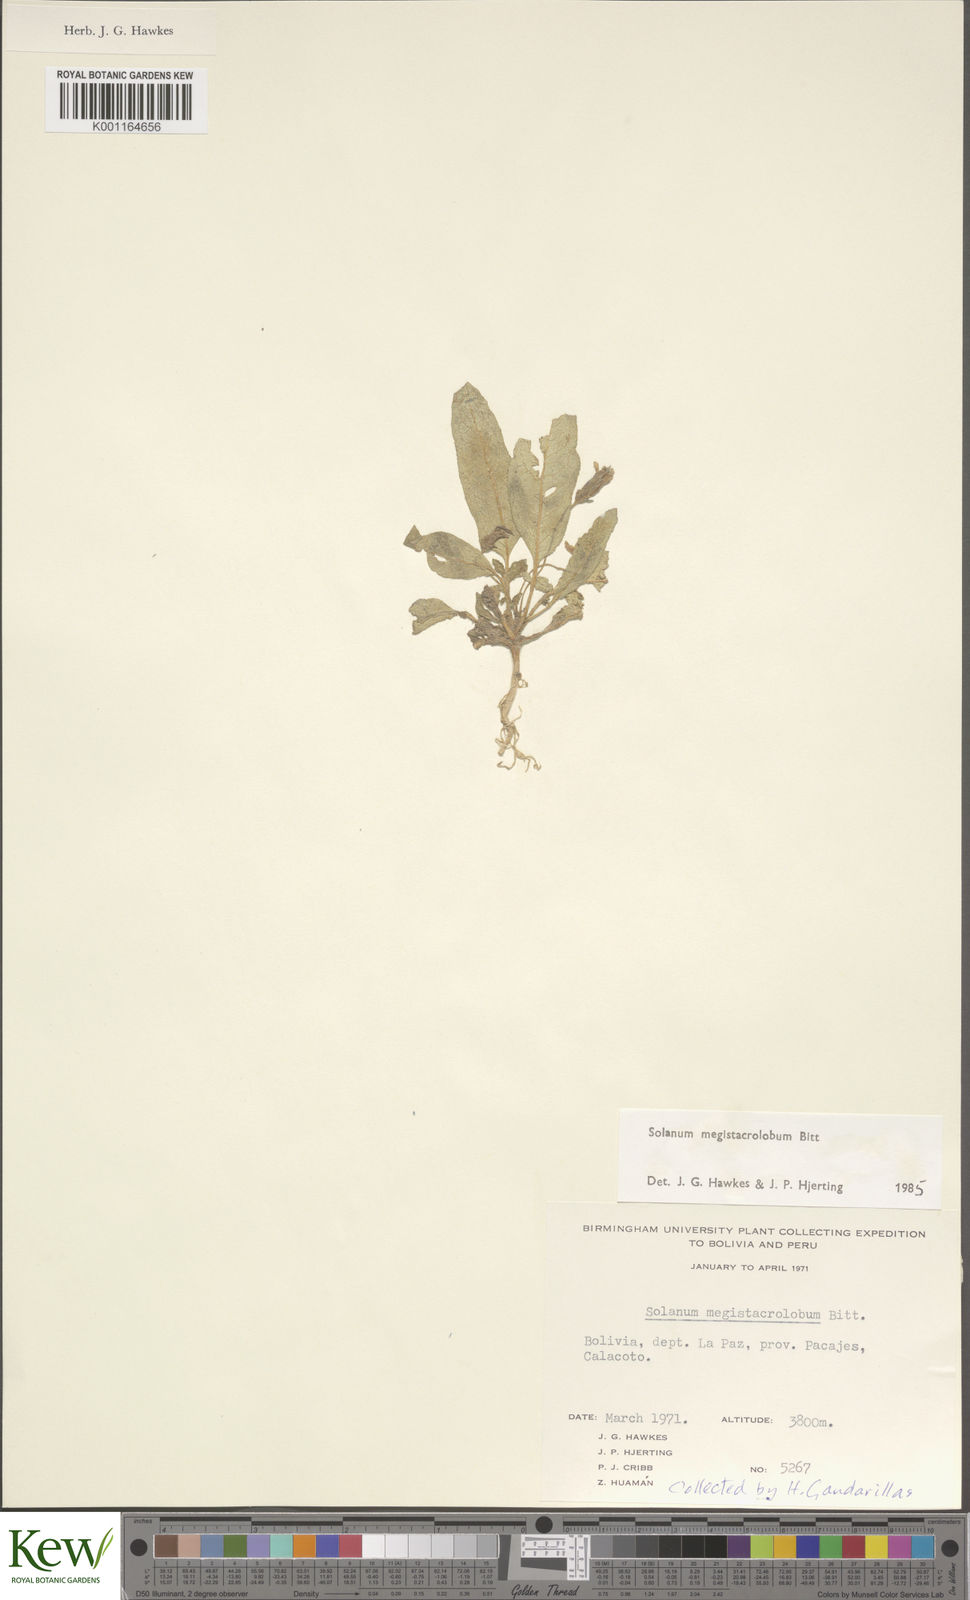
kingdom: Plantae
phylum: Tracheophyta
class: Magnoliopsida
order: Solanales
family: Solanaceae
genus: Solanum
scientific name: Solanum boliviense
